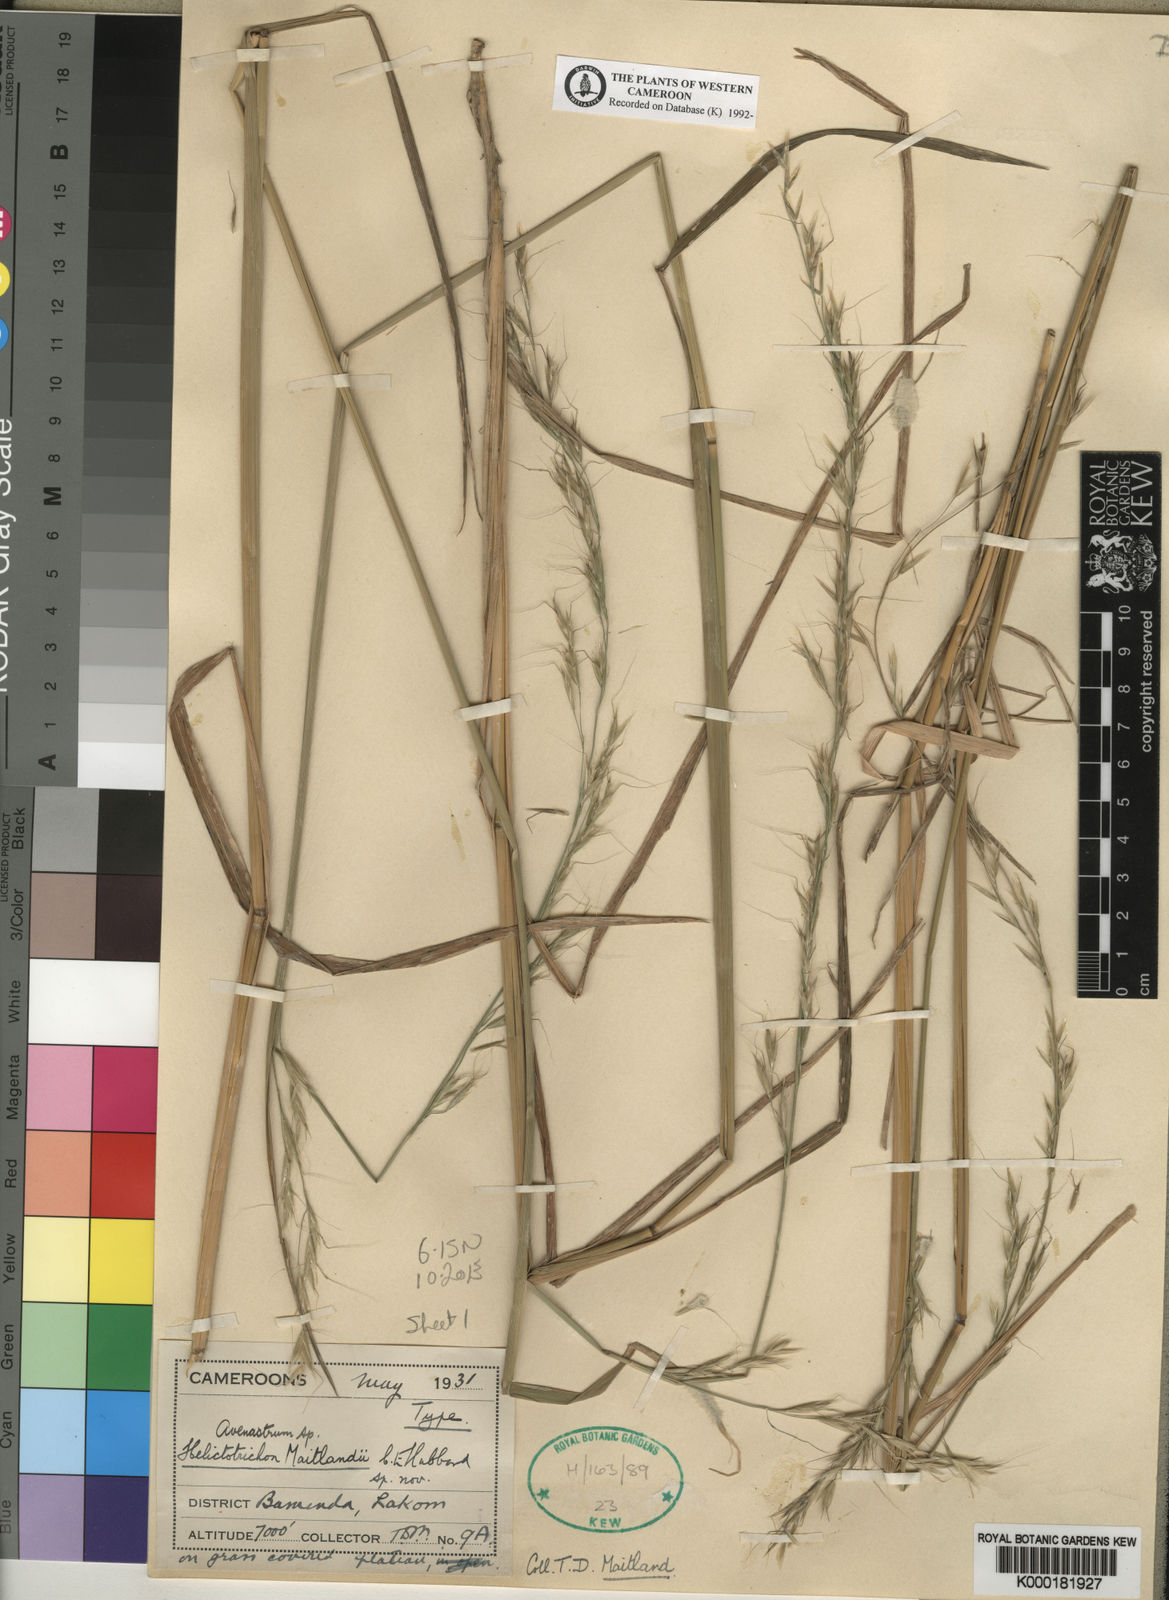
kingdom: Plantae
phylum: Tracheophyta
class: Liliopsida
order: Poales
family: Poaceae
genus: Trisetopsis
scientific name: Trisetopsis elongata
